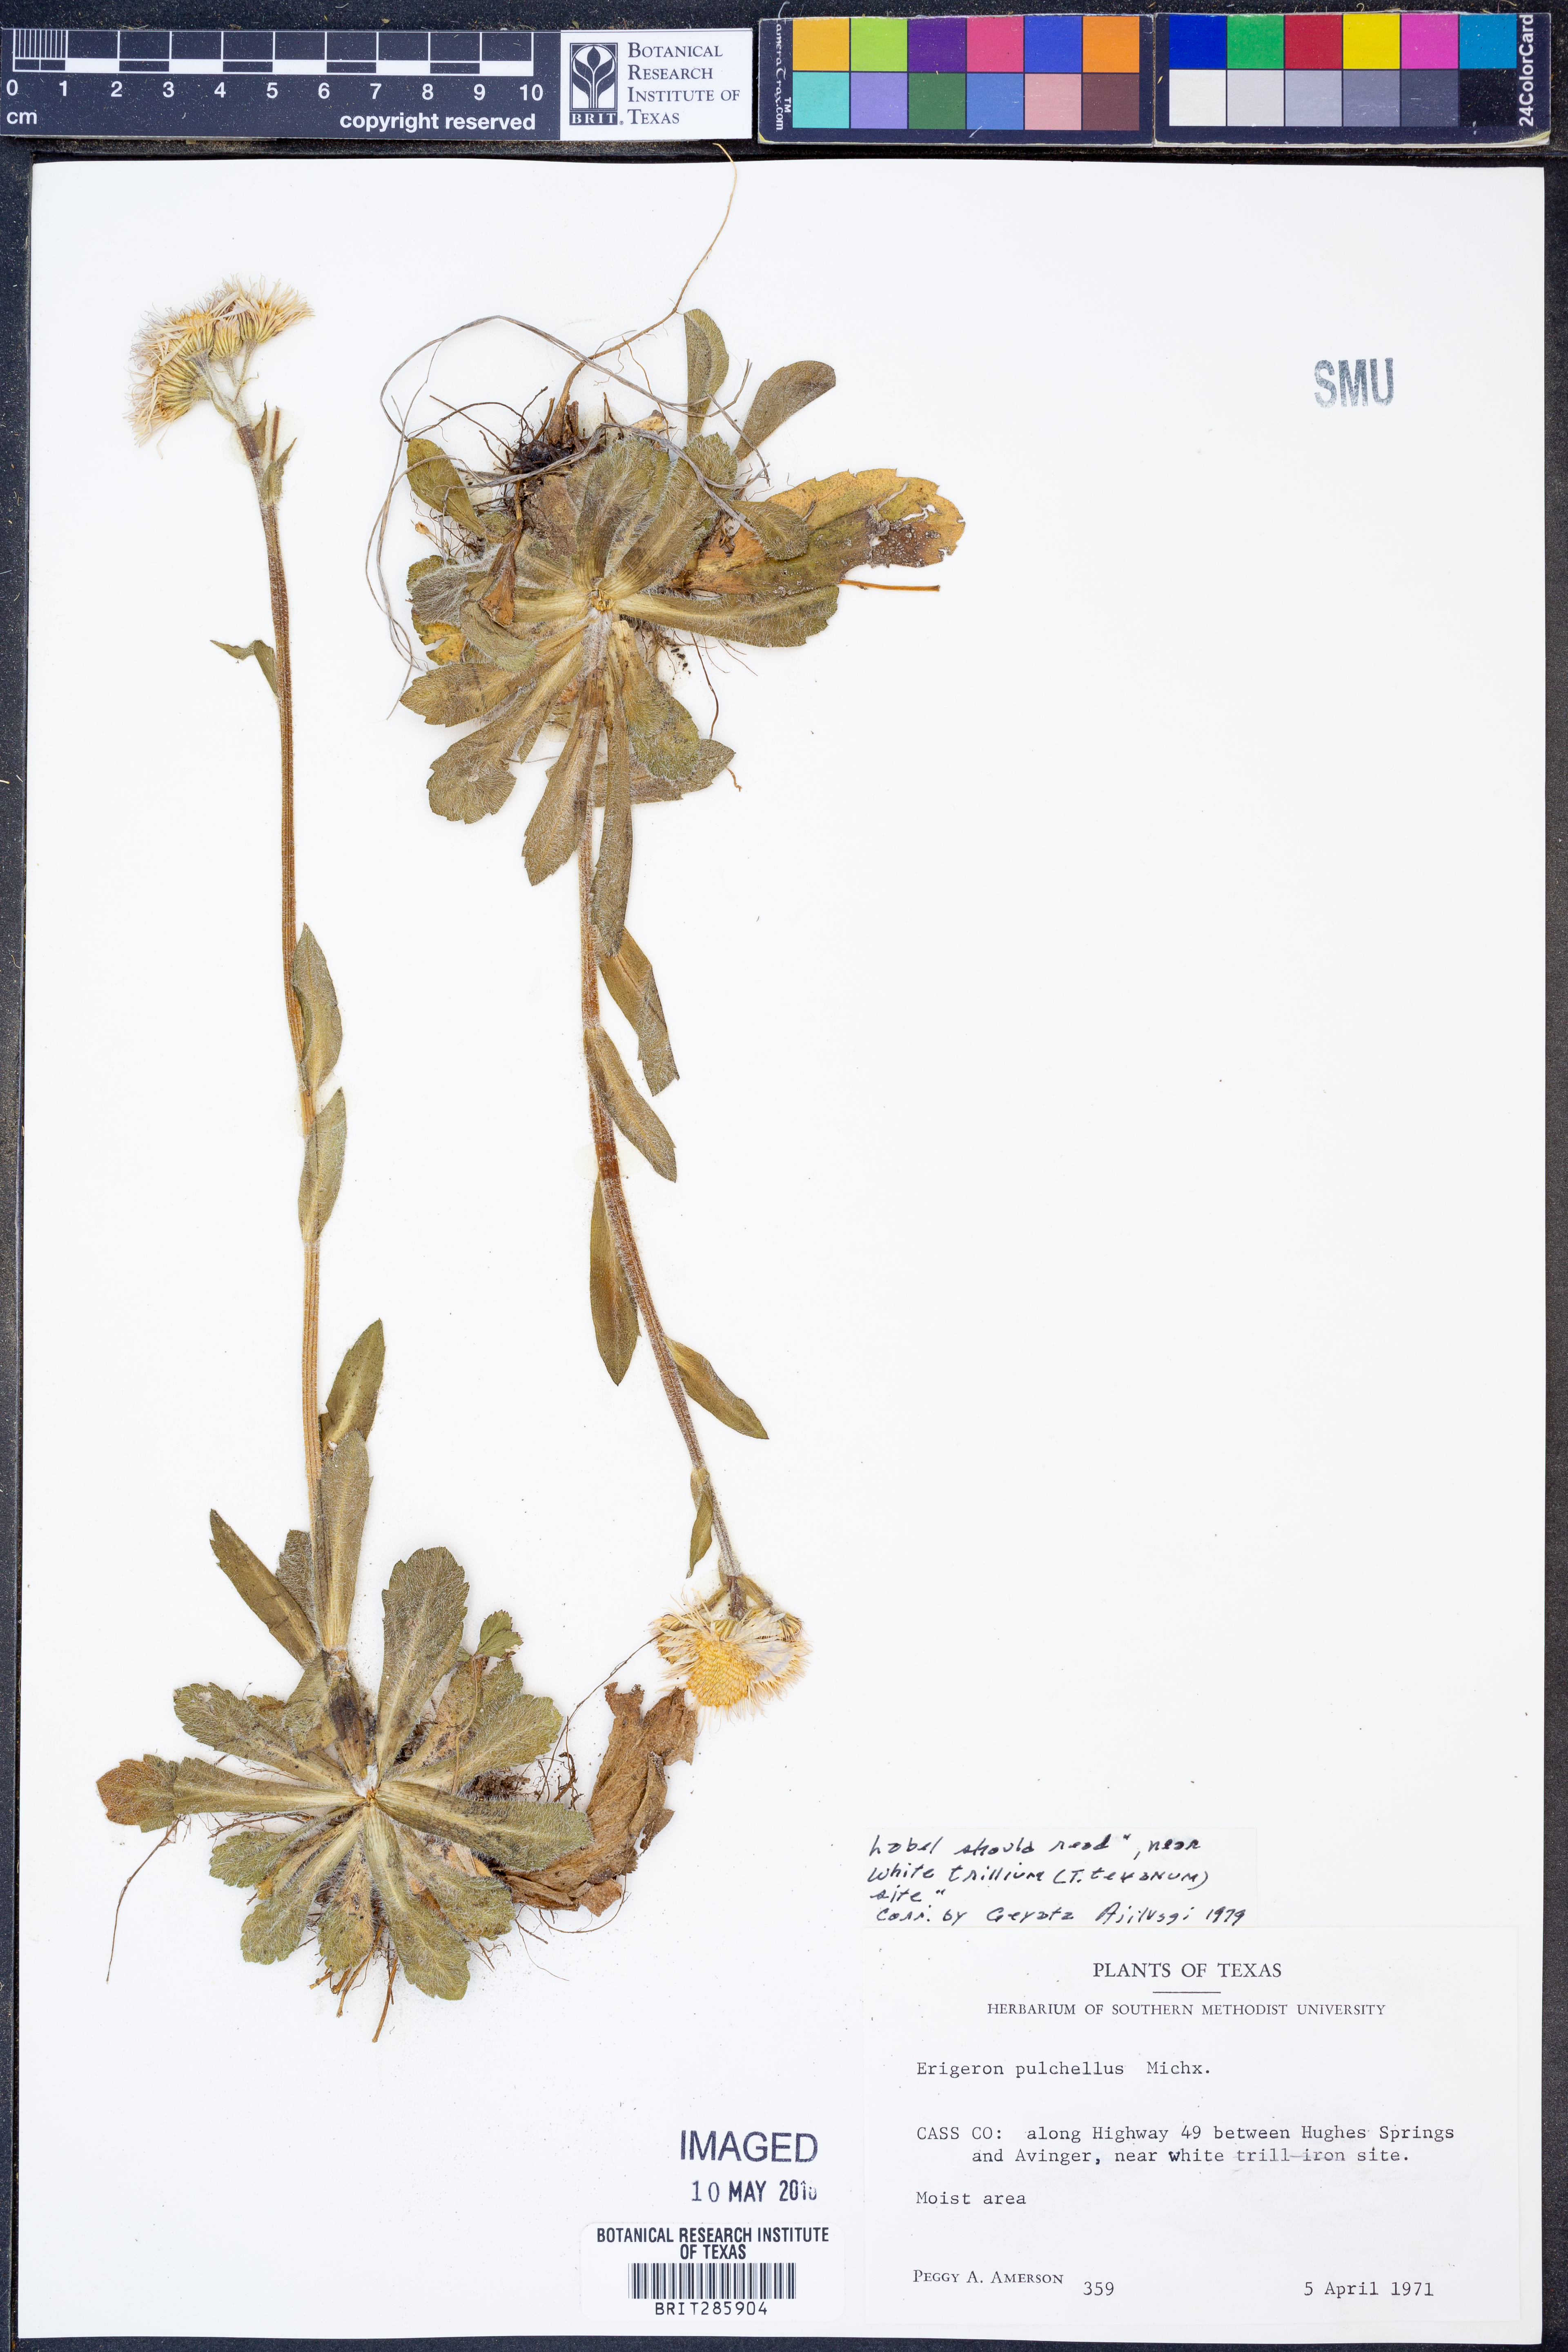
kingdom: Plantae
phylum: Tracheophyta
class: Magnoliopsida
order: Asterales
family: Asteraceae
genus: Erigeron
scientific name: Erigeron pulchellus
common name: Hairy fleabane
